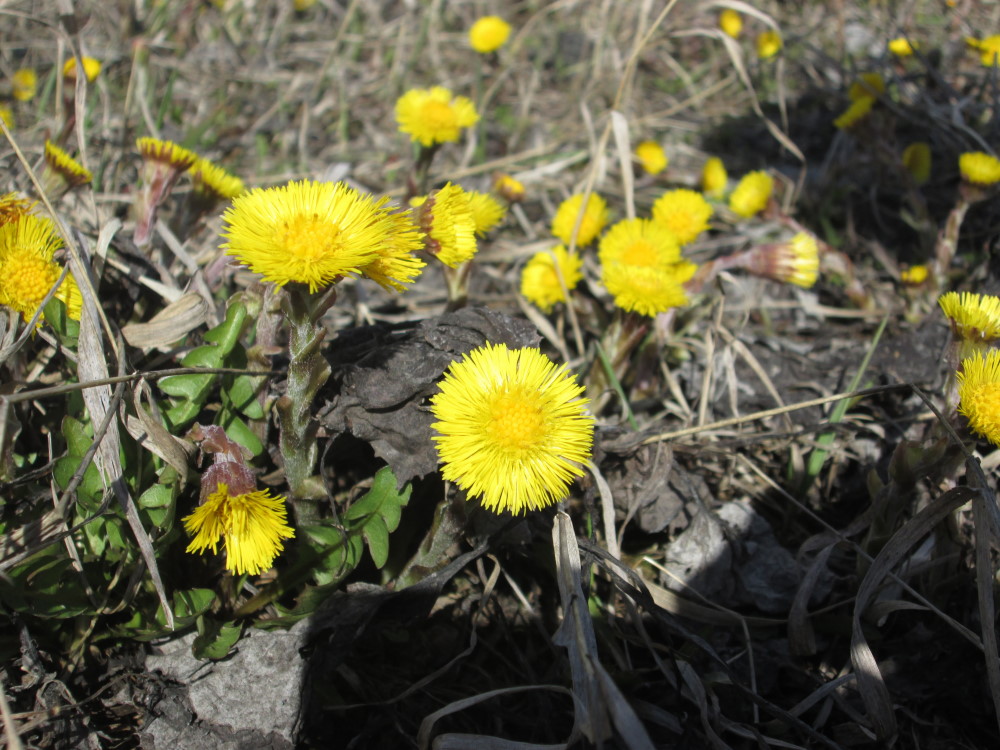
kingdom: Plantae
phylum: Tracheophyta
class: Magnoliopsida
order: Asterales
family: Asteraceae
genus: Tussilago
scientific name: Tussilago farfara
